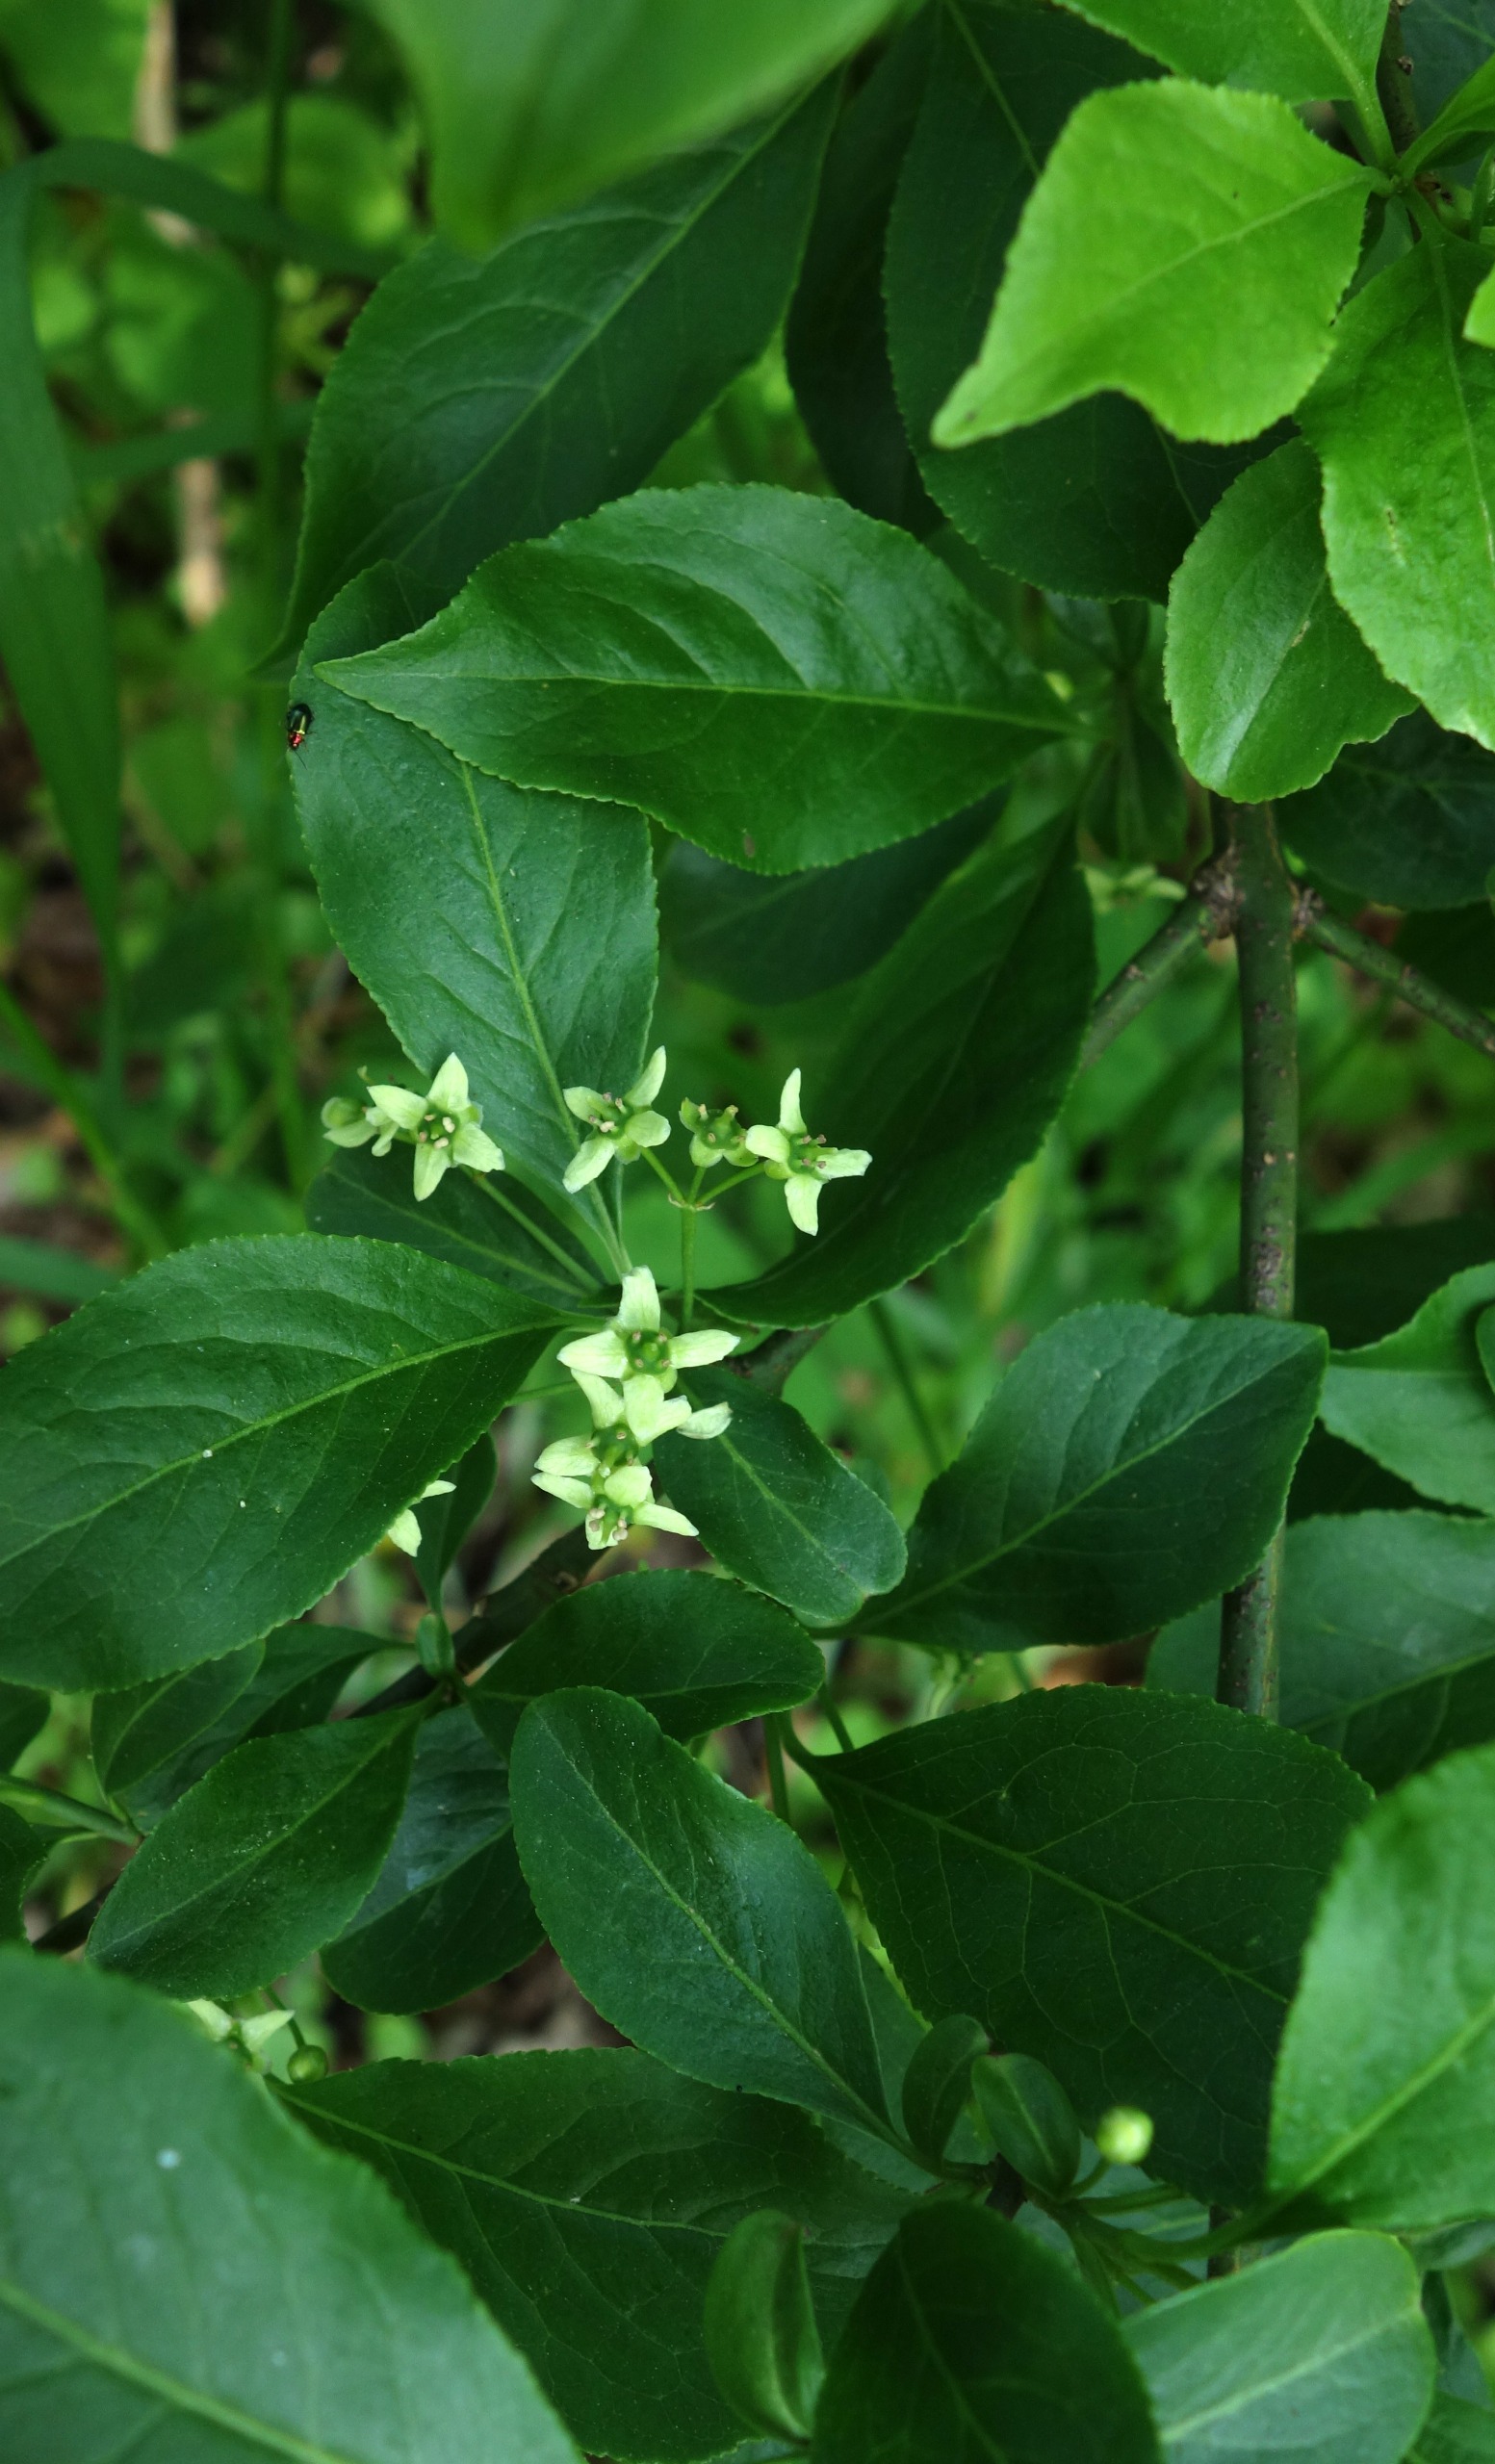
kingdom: Plantae
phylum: Tracheophyta
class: Magnoliopsida
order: Celastrales
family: Celastraceae
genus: Euonymus
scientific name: Euonymus europaeus
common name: Benved
